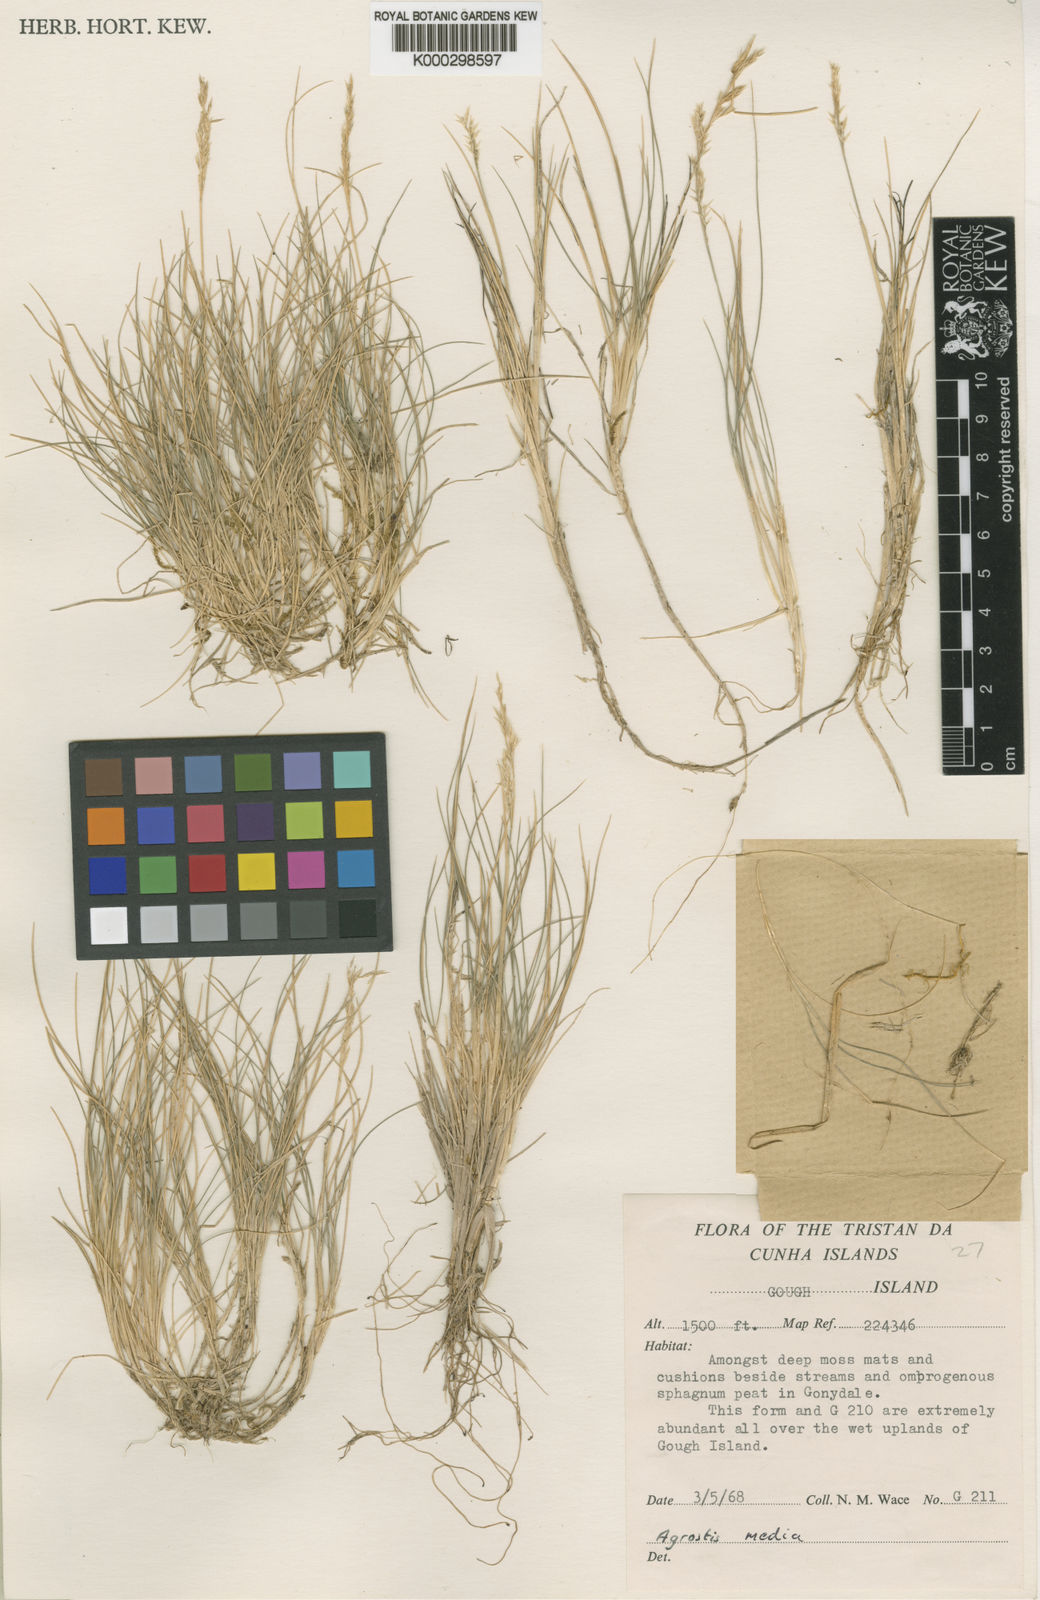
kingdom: Plantae
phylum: Tracheophyta
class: Liliopsida
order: Poales
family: Poaceae
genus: Agrostis
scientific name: Agrostis media
